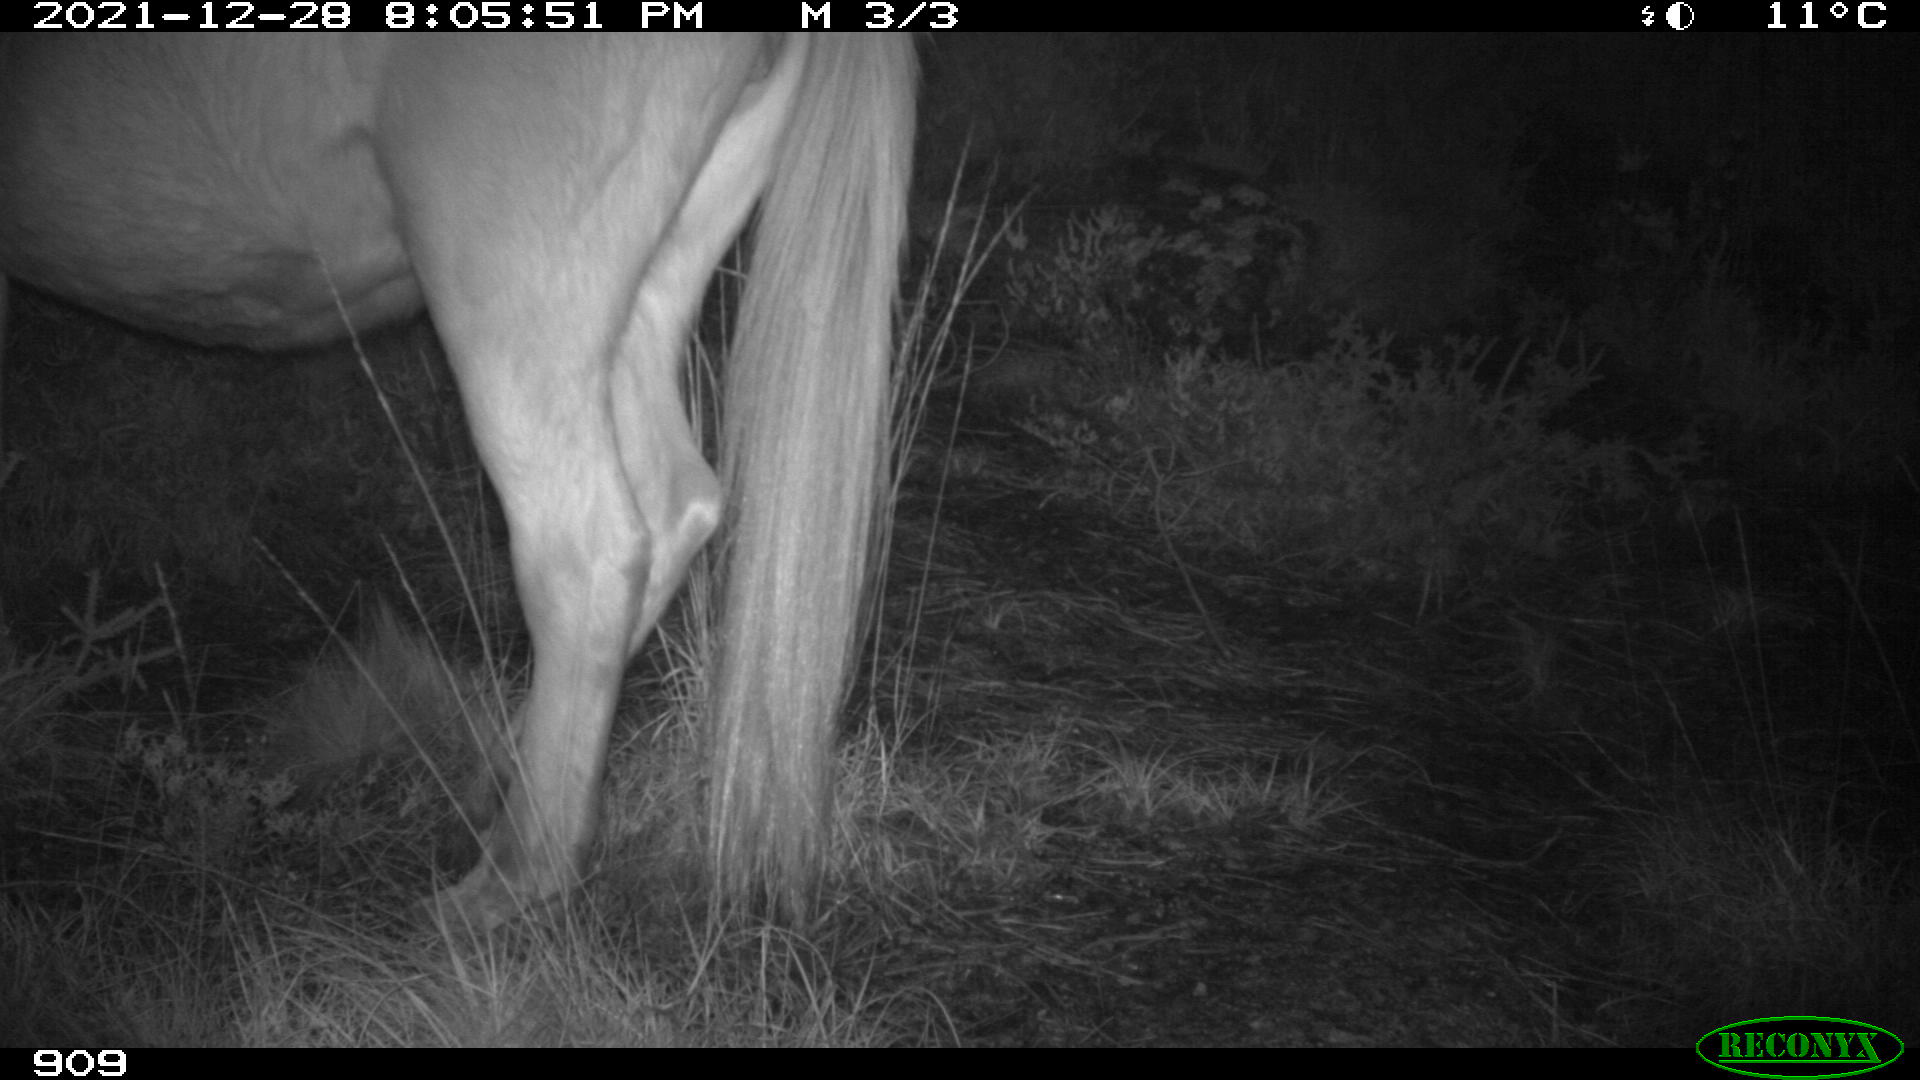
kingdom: Animalia
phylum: Chordata
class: Mammalia
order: Perissodactyla
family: Equidae
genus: Equus
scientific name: Equus caballus
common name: Horse
